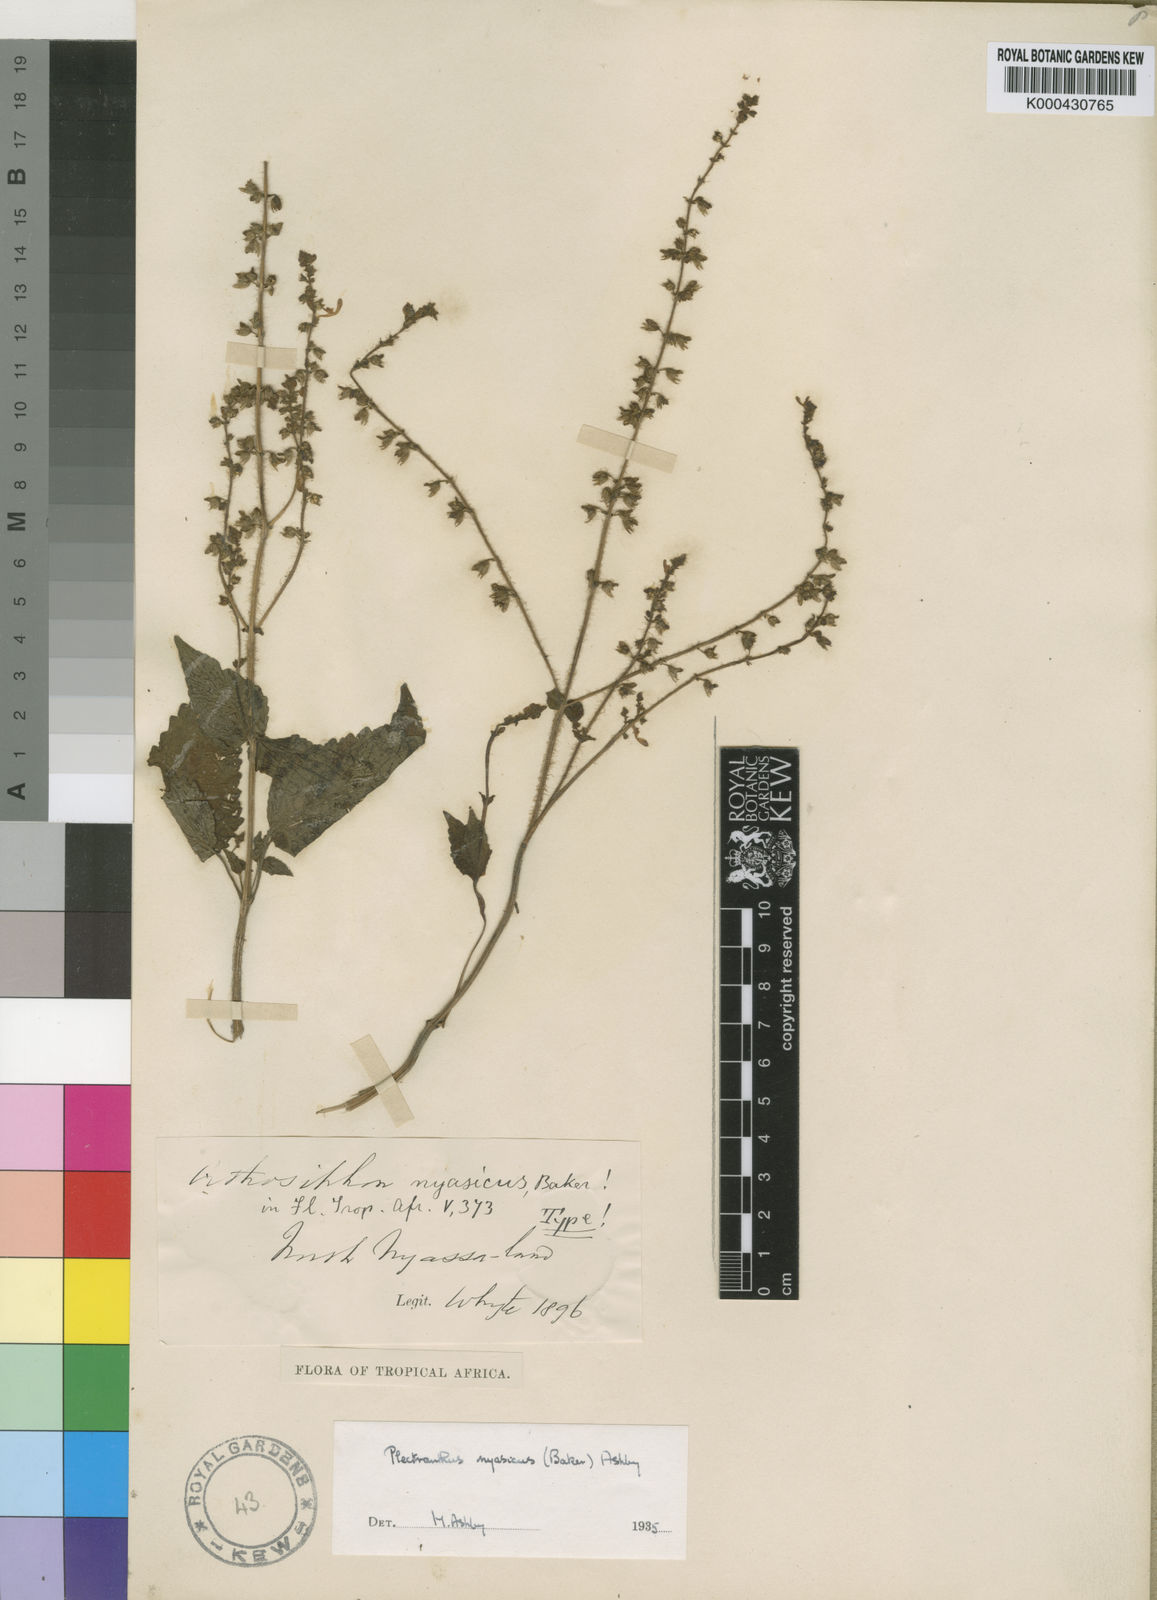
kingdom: Plantae
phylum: Tracheophyta
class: Magnoliopsida
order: Lamiales
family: Lamiaceae
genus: Equilabium
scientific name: Equilabium masukense
